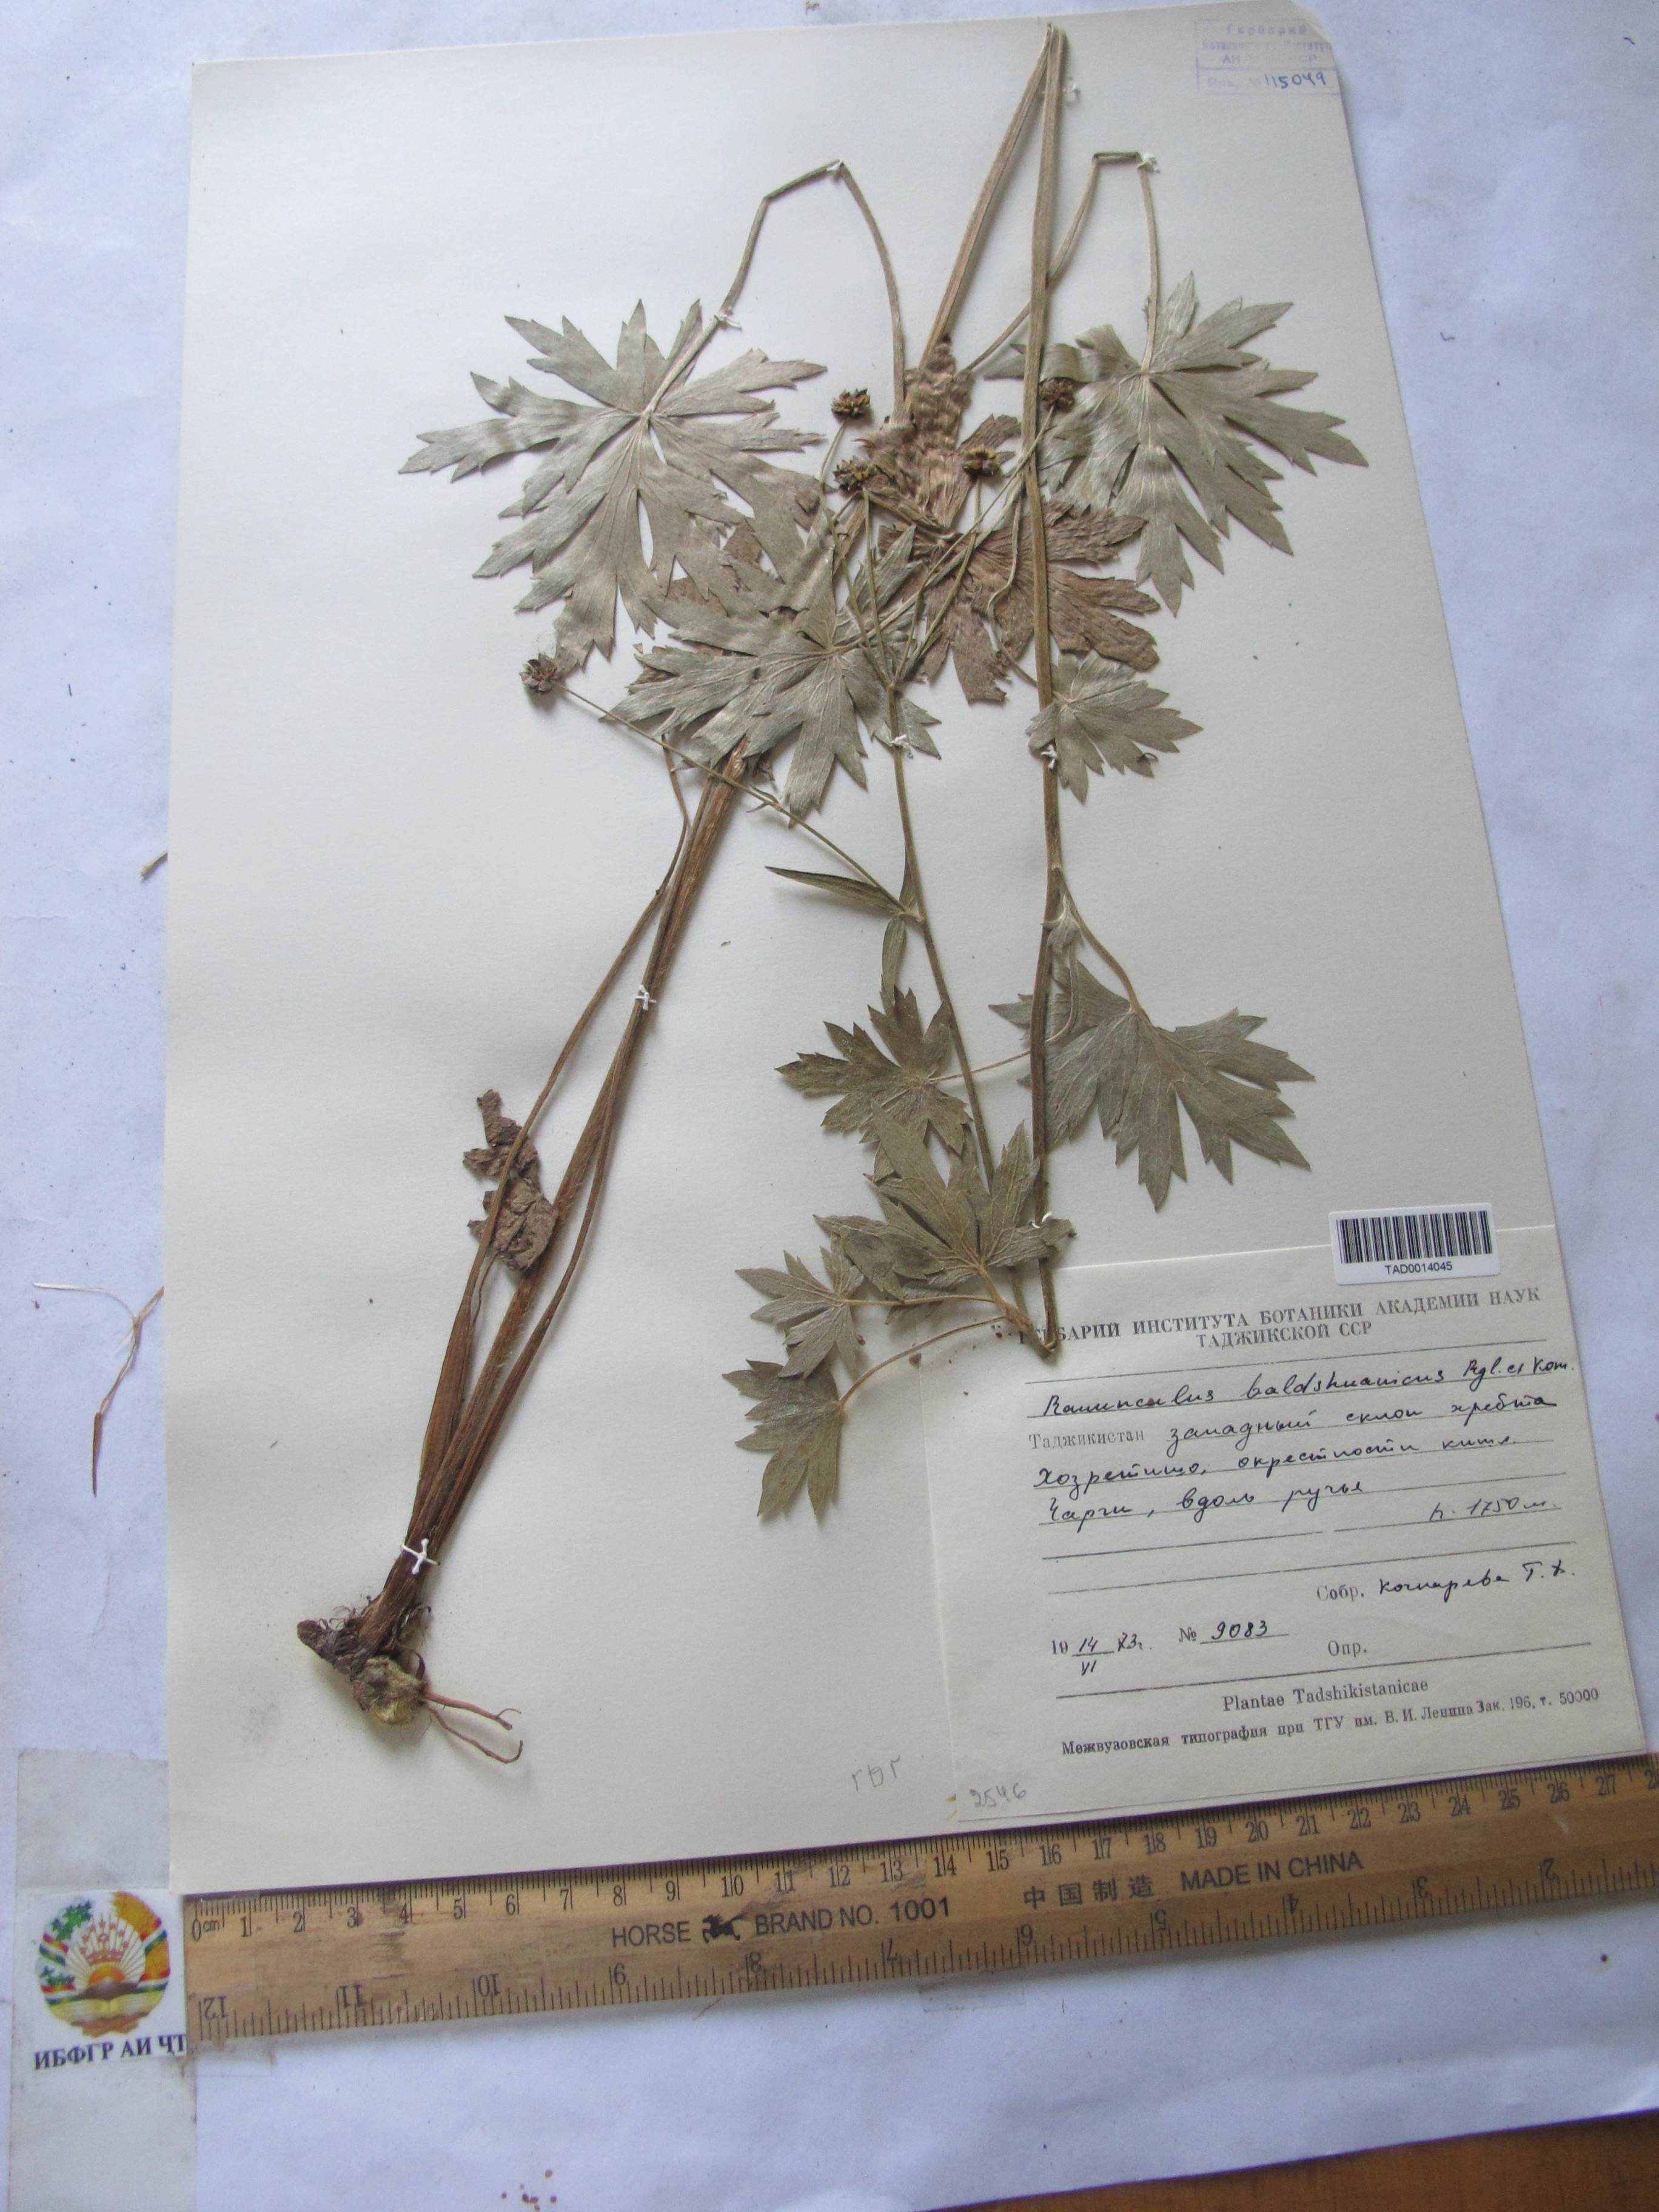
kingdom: Plantae
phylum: Tracheophyta
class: Magnoliopsida
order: Ranunculales
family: Ranunculaceae
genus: Ranunculus
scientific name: Ranunculus baldshuanicus
